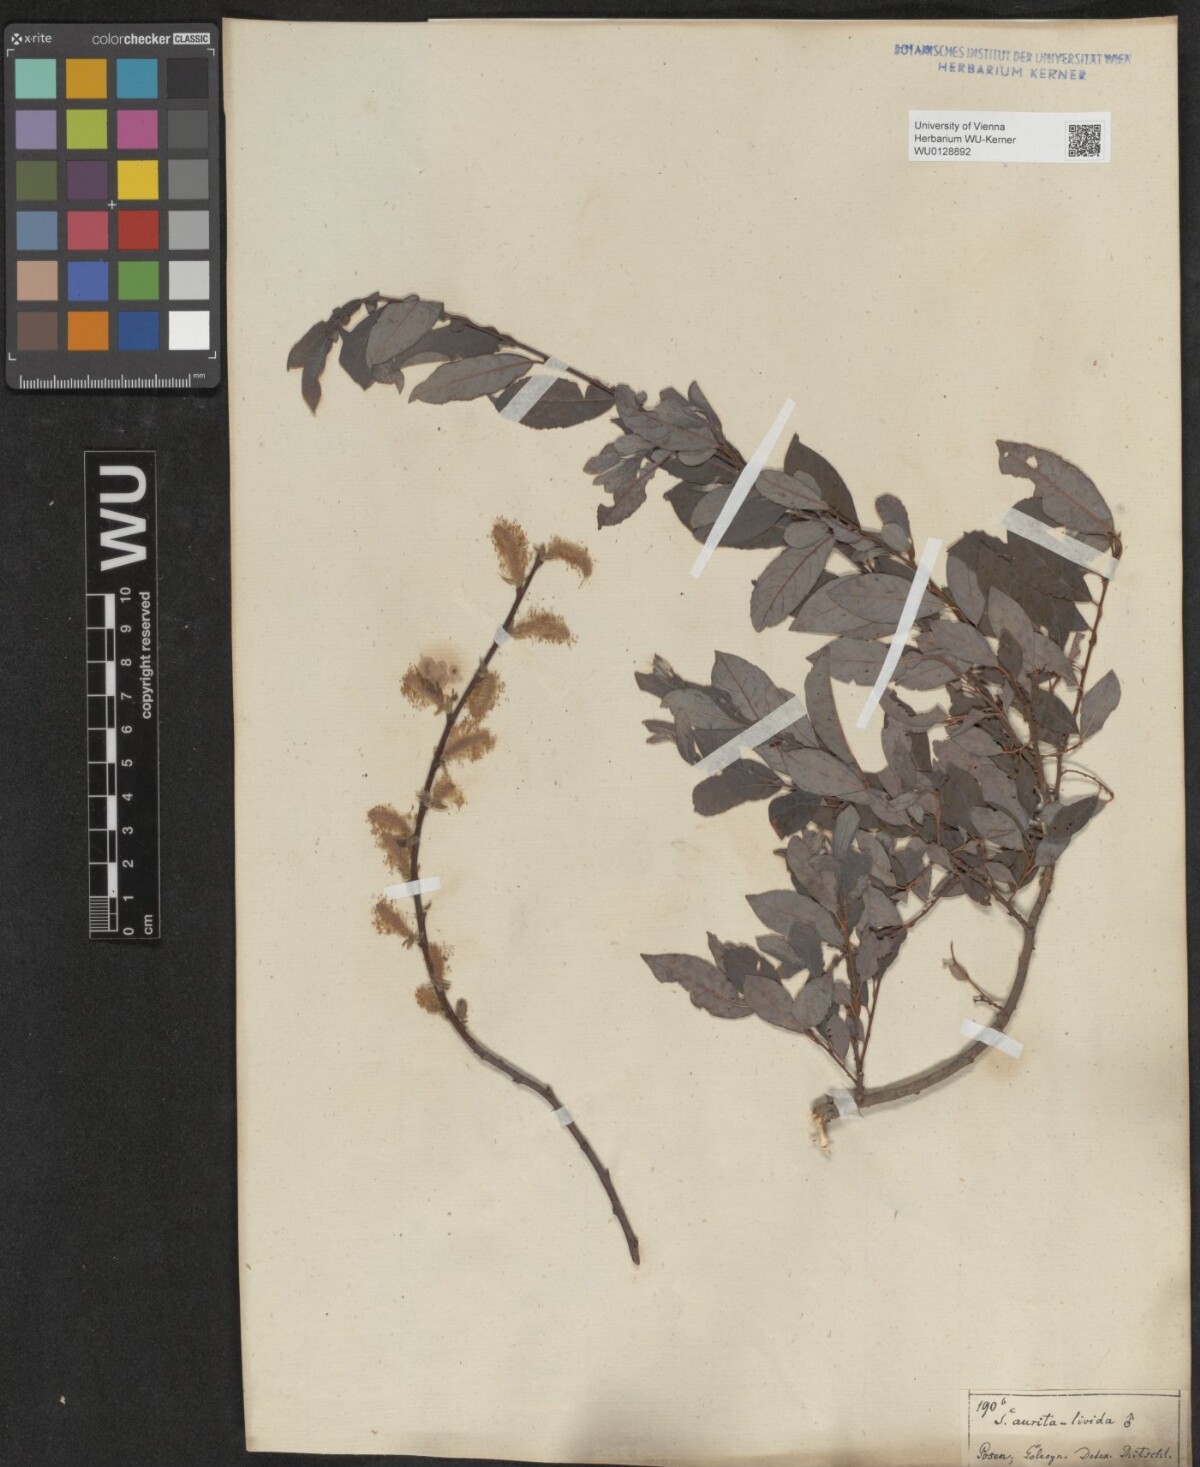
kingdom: Plantae
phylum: Tracheophyta
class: Magnoliopsida
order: Malpighiales
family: Salicaceae
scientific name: Salicaceae
